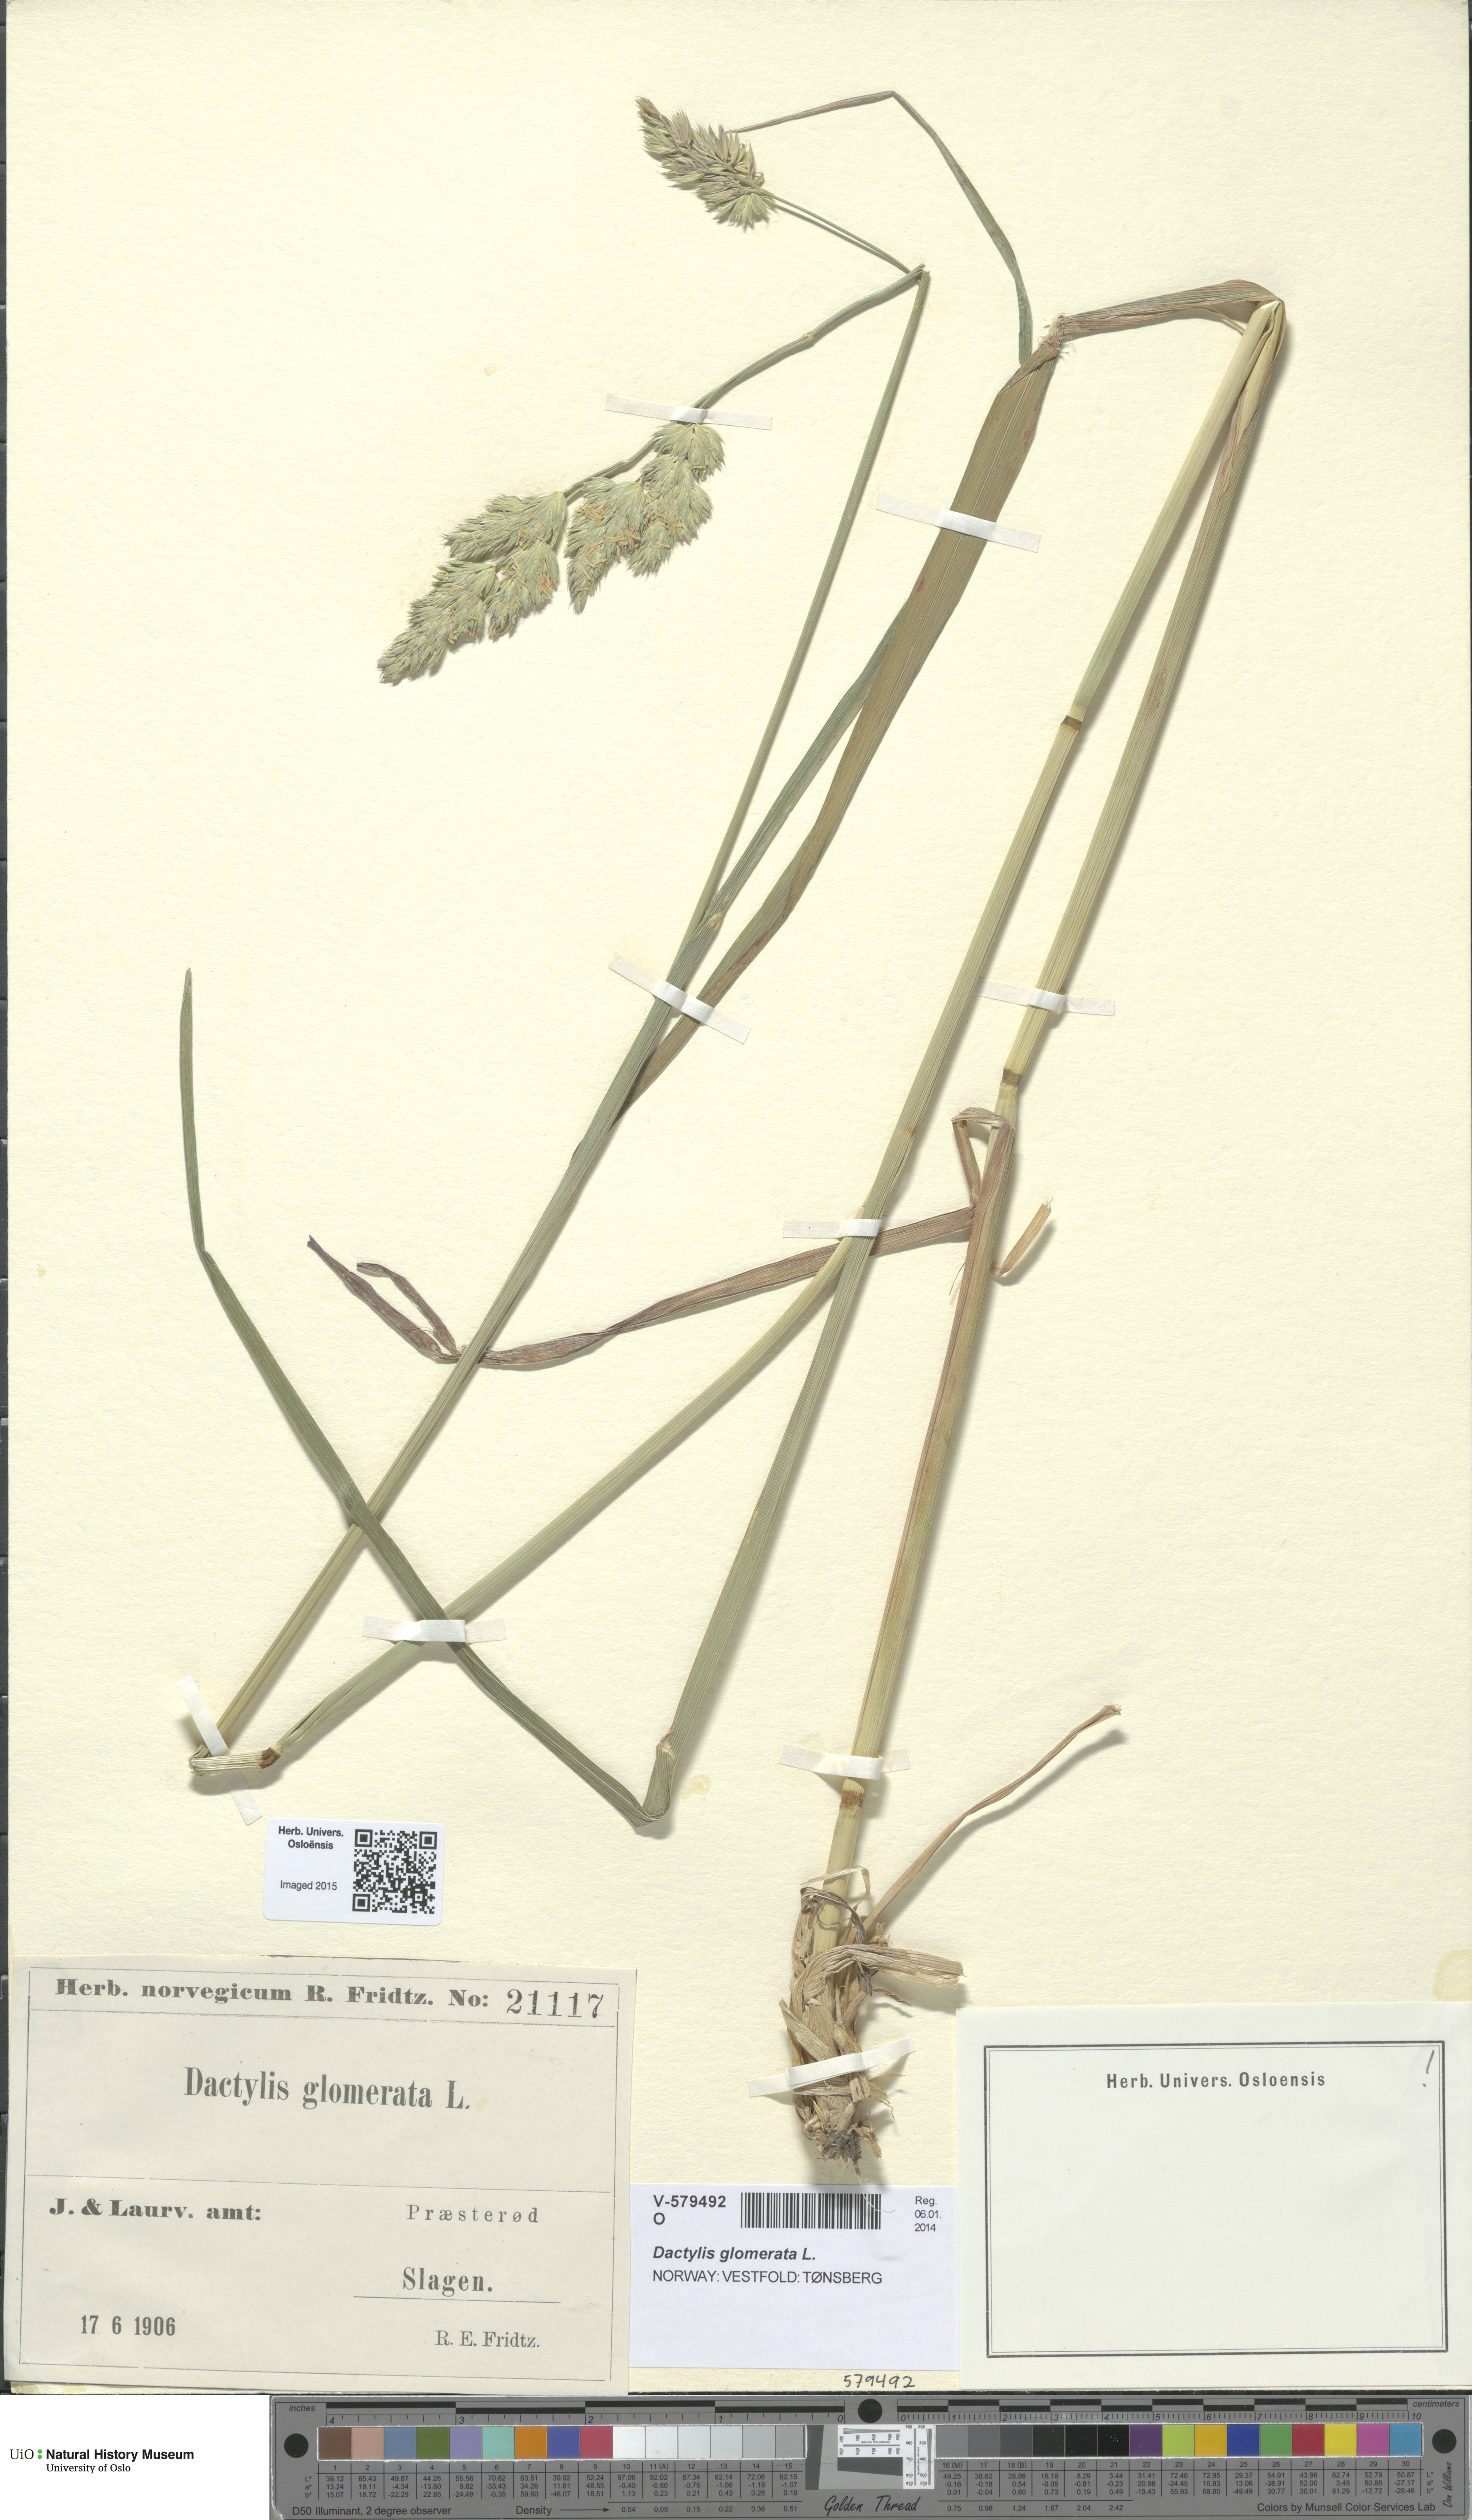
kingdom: Plantae
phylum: Tracheophyta
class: Liliopsida
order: Poales
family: Poaceae
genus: Dactylis
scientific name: Dactylis glomerata
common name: Orchardgrass
